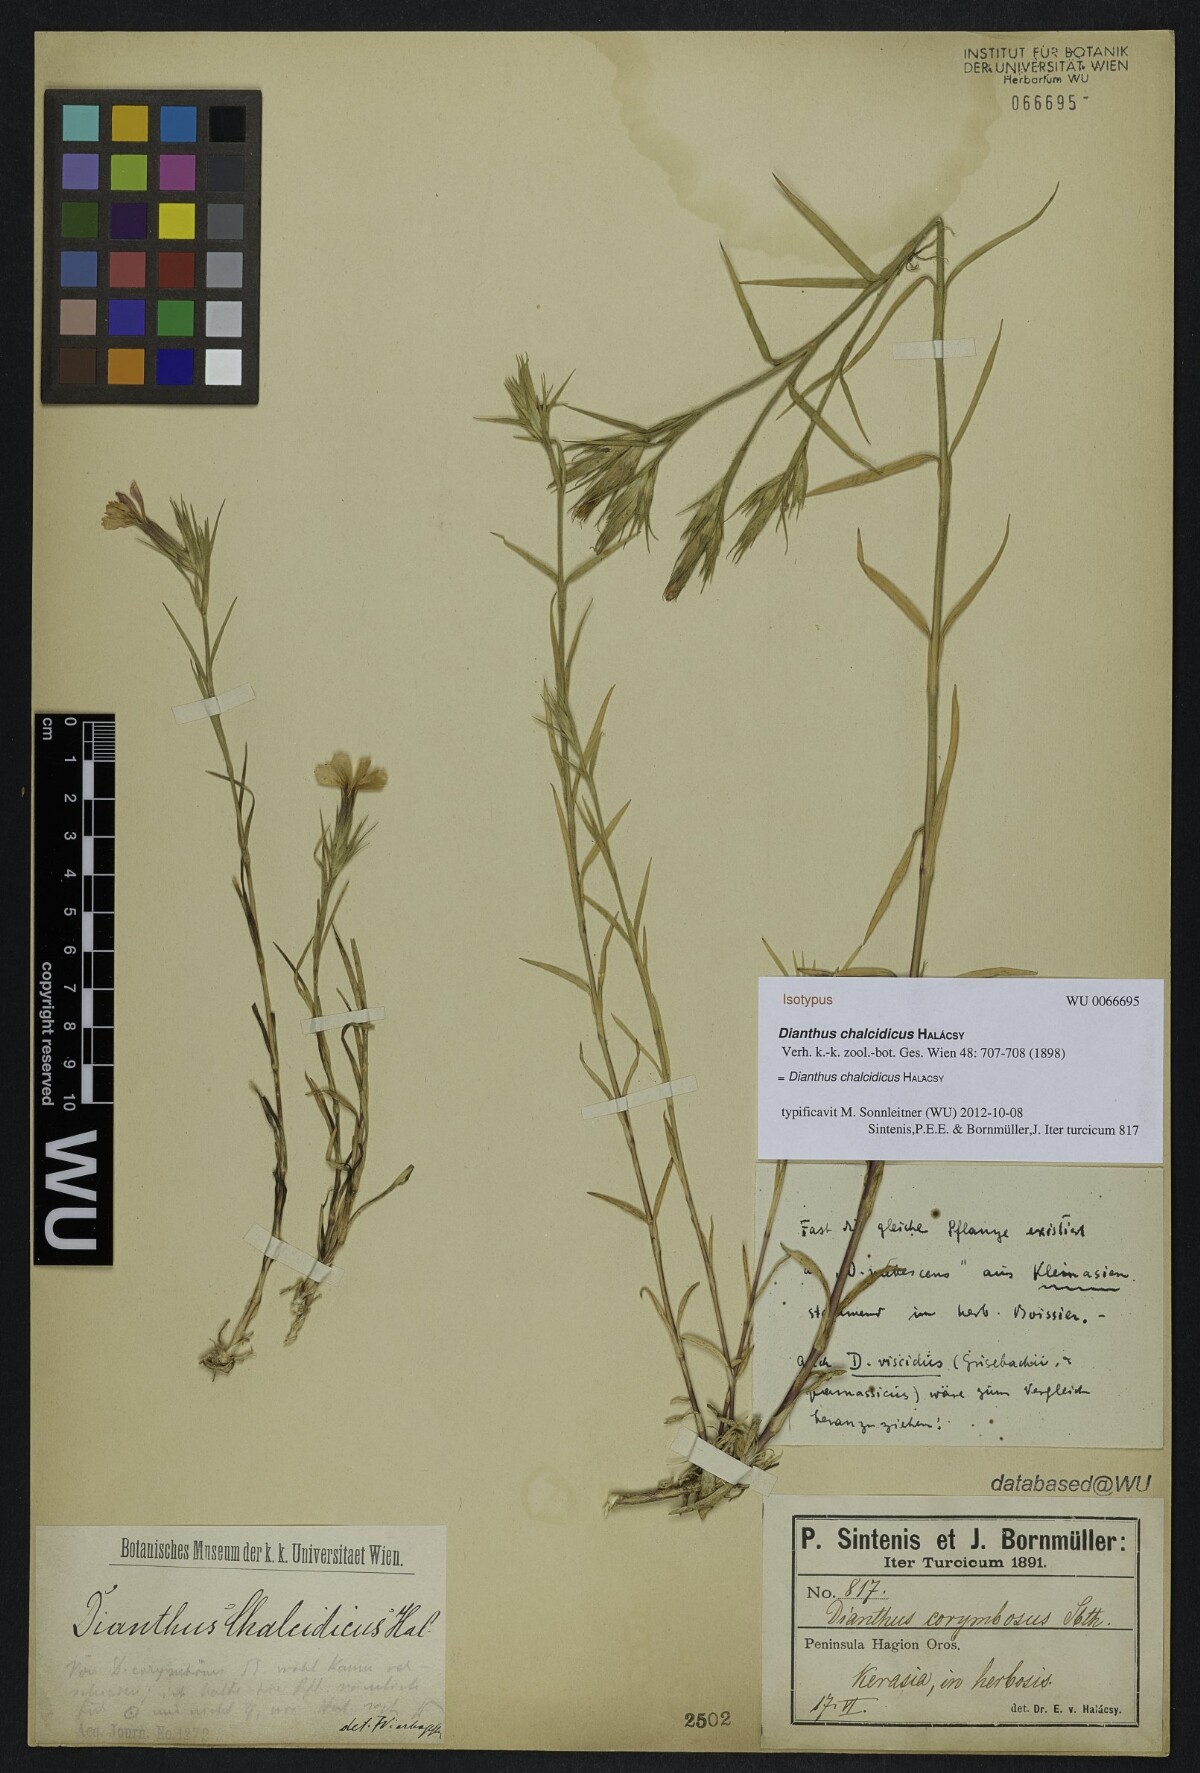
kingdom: Plantae
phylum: Tracheophyta
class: Magnoliopsida
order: Caryophyllales
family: Caryophyllaceae
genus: Dianthus
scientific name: Dianthus corymbosus
